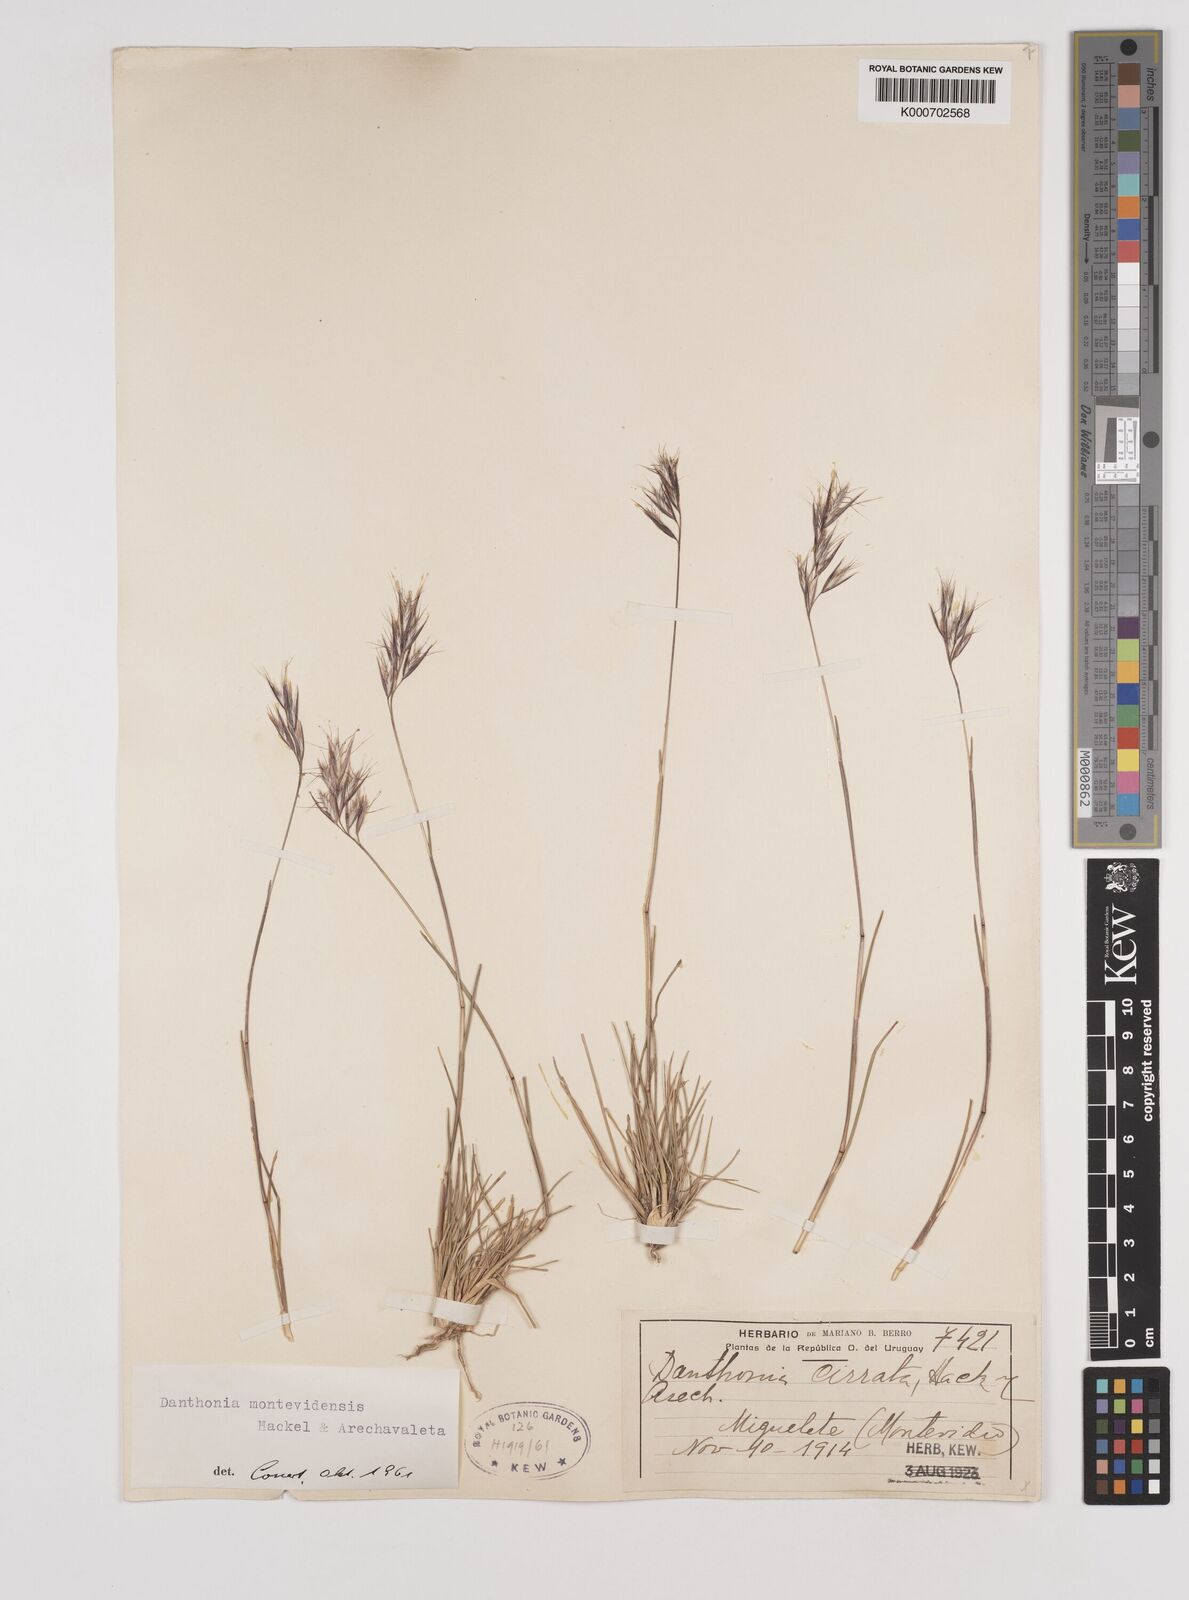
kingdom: Plantae
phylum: Tracheophyta
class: Liliopsida
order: Poales
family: Poaceae
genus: Danthonia
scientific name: Danthonia montevidensis
